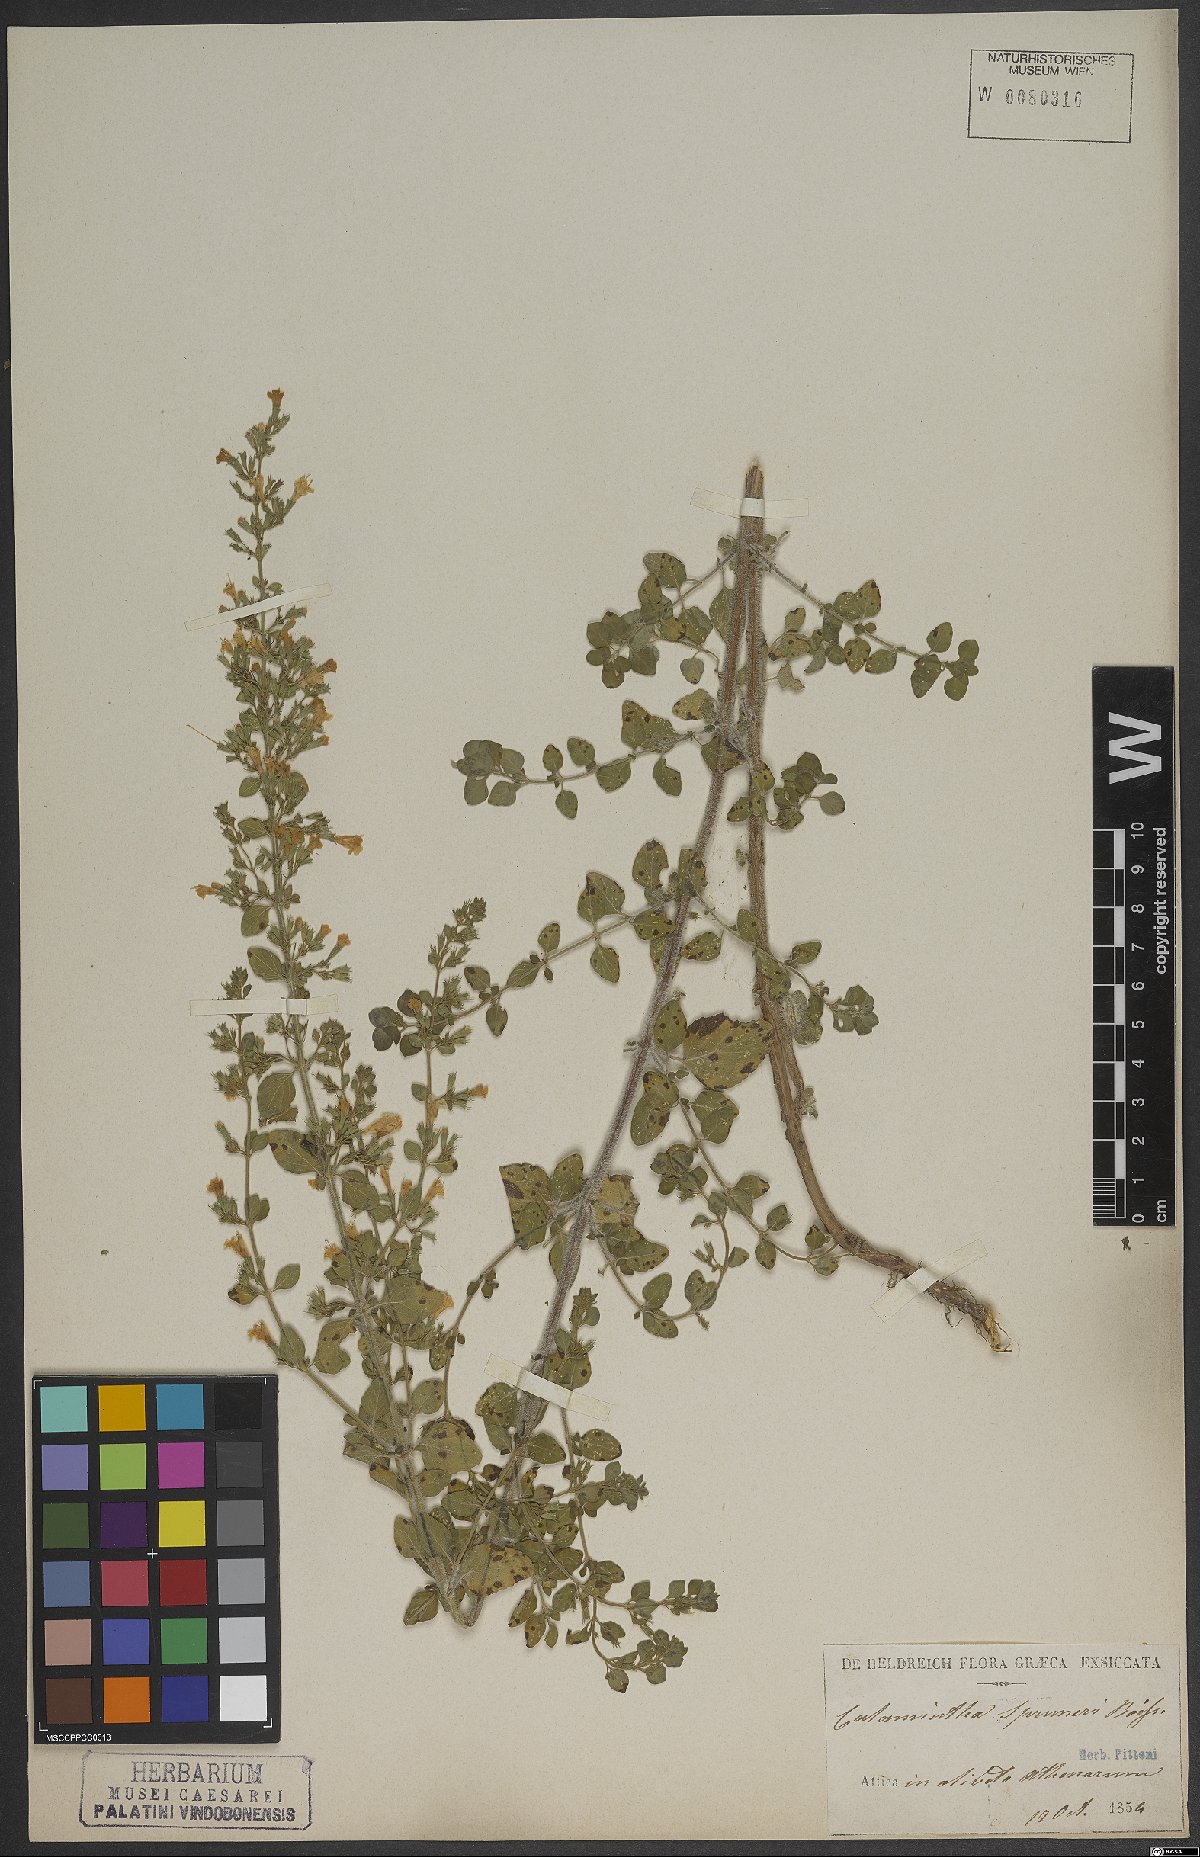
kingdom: Plantae
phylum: Tracheophyta
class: Magnoliopsida
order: Lamiales
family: Lamiaceae
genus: Clinopodium
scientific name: Clinopodium nepeta
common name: Lesser calamint
